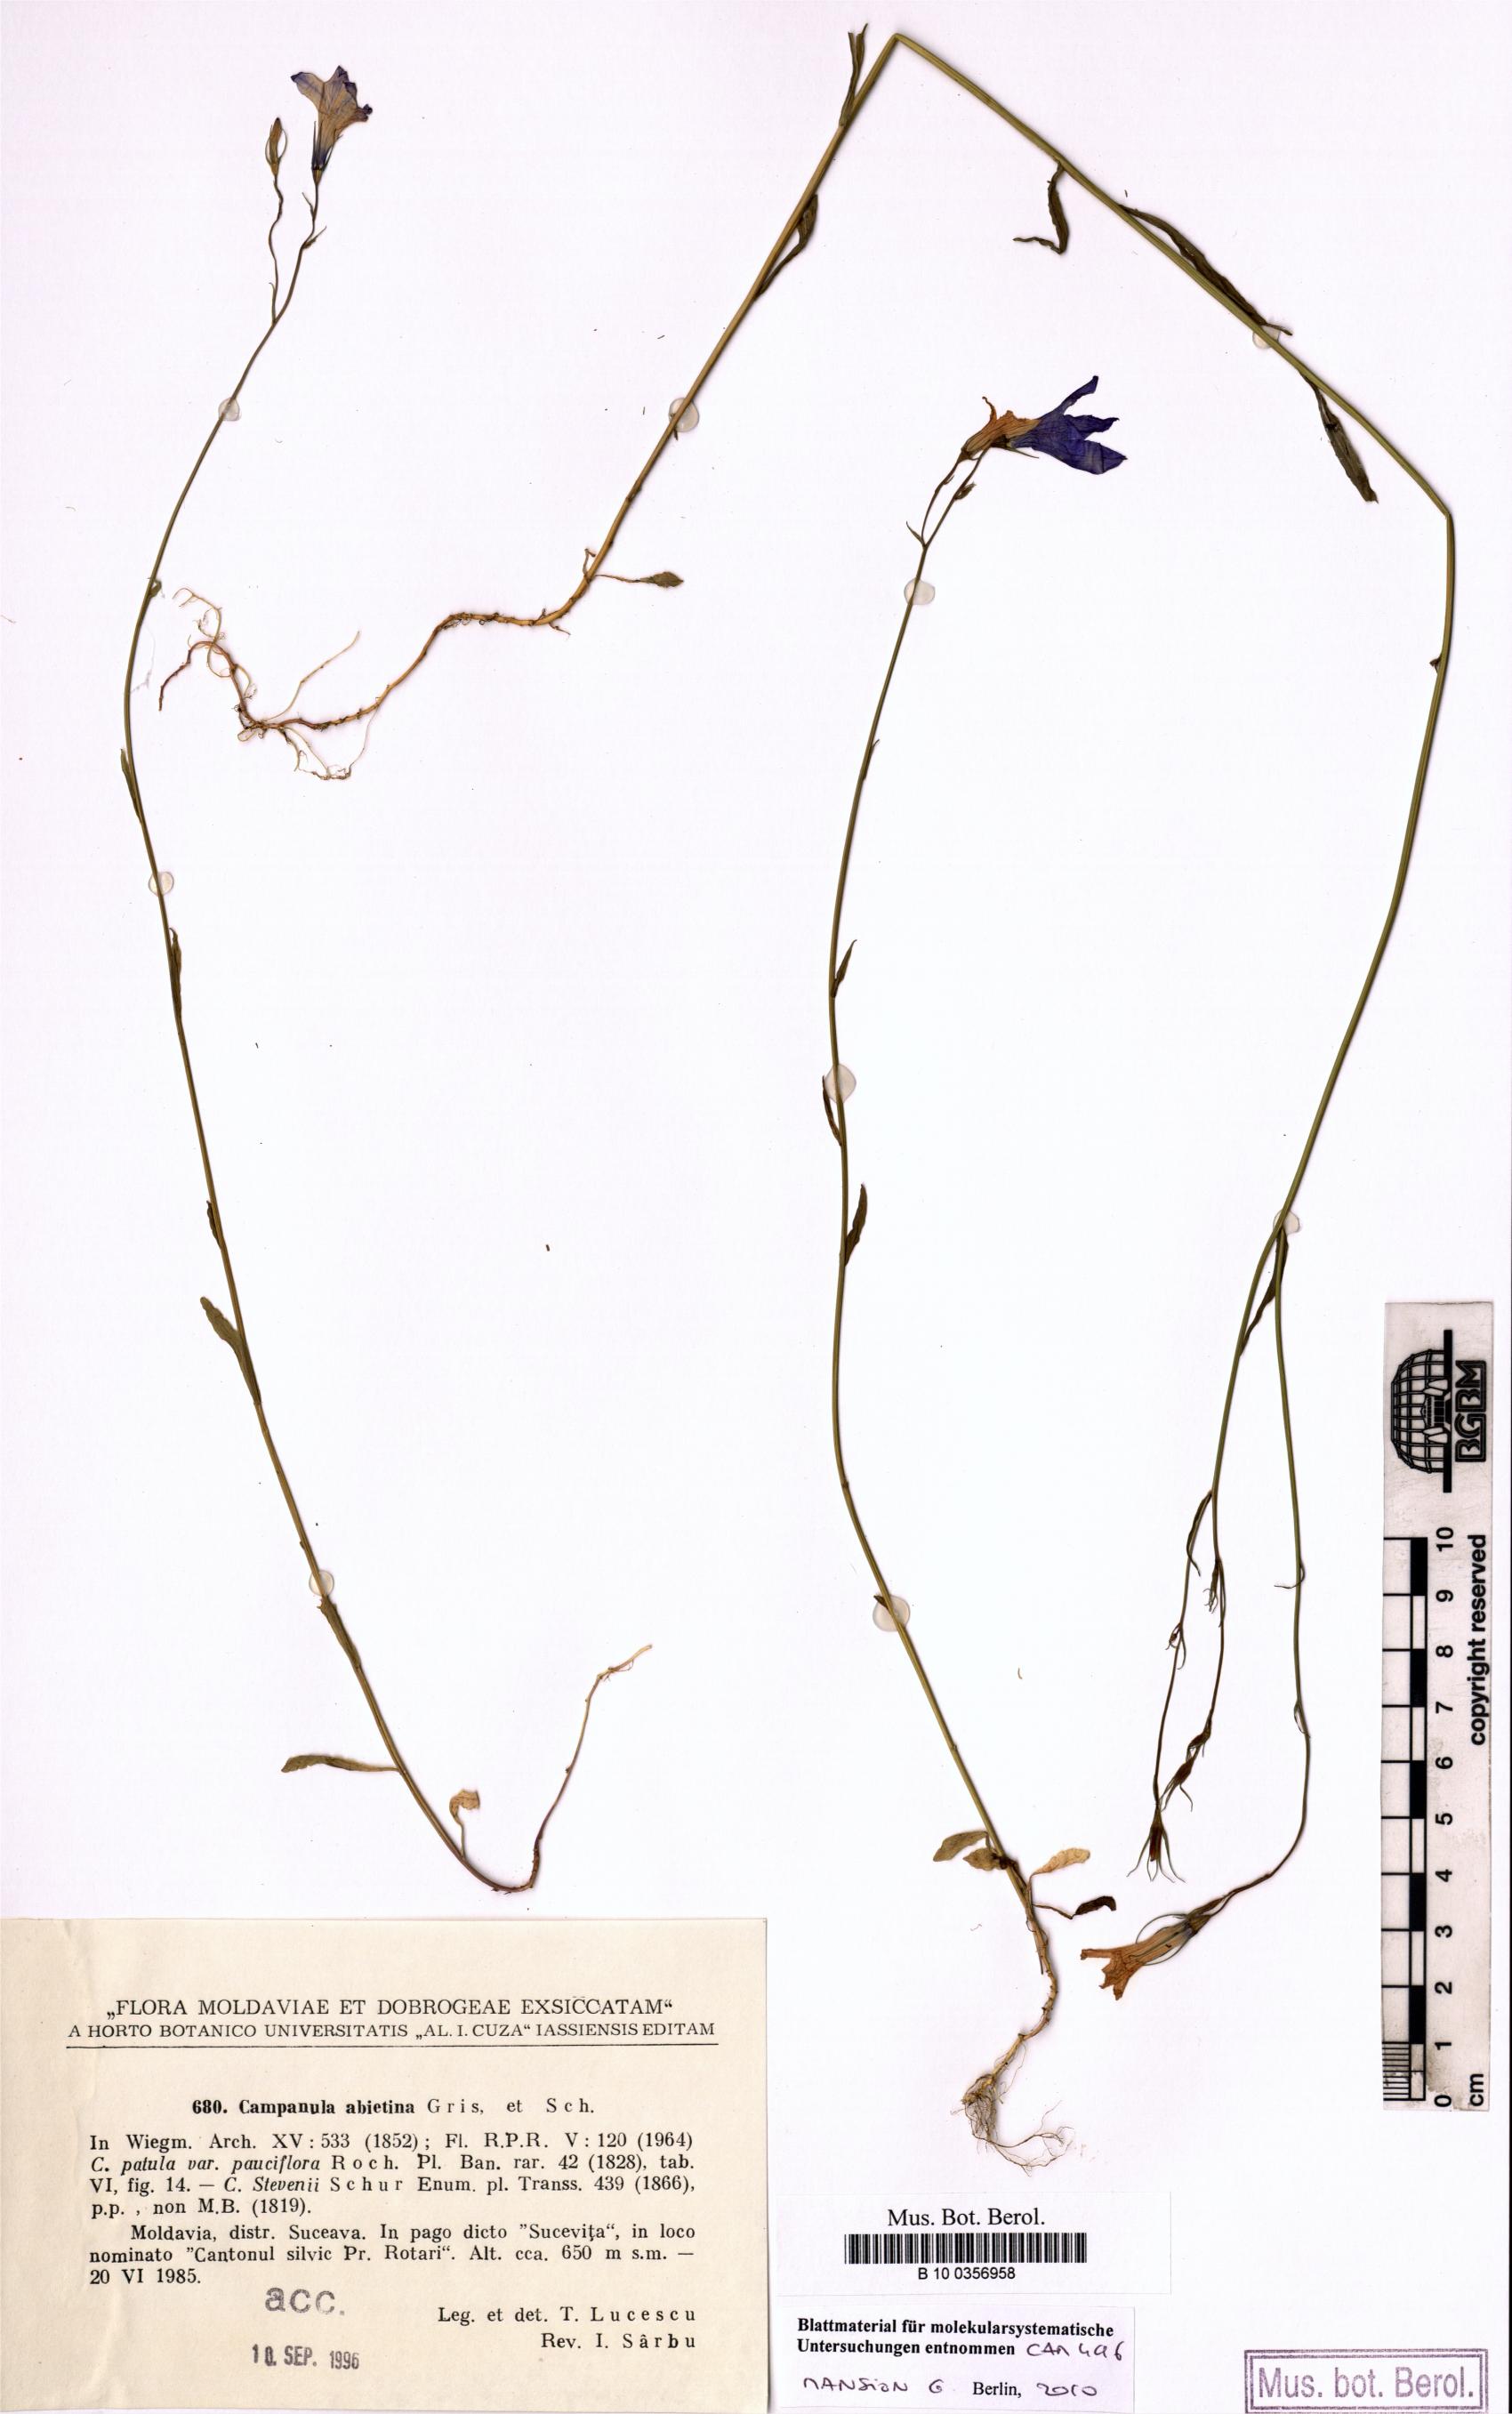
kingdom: Plantae
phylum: Tracheophyta
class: Magnoliopsida
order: Asterales
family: Campanulaceae
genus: Campanula
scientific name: Campanula patula
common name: Spreading bellflower
